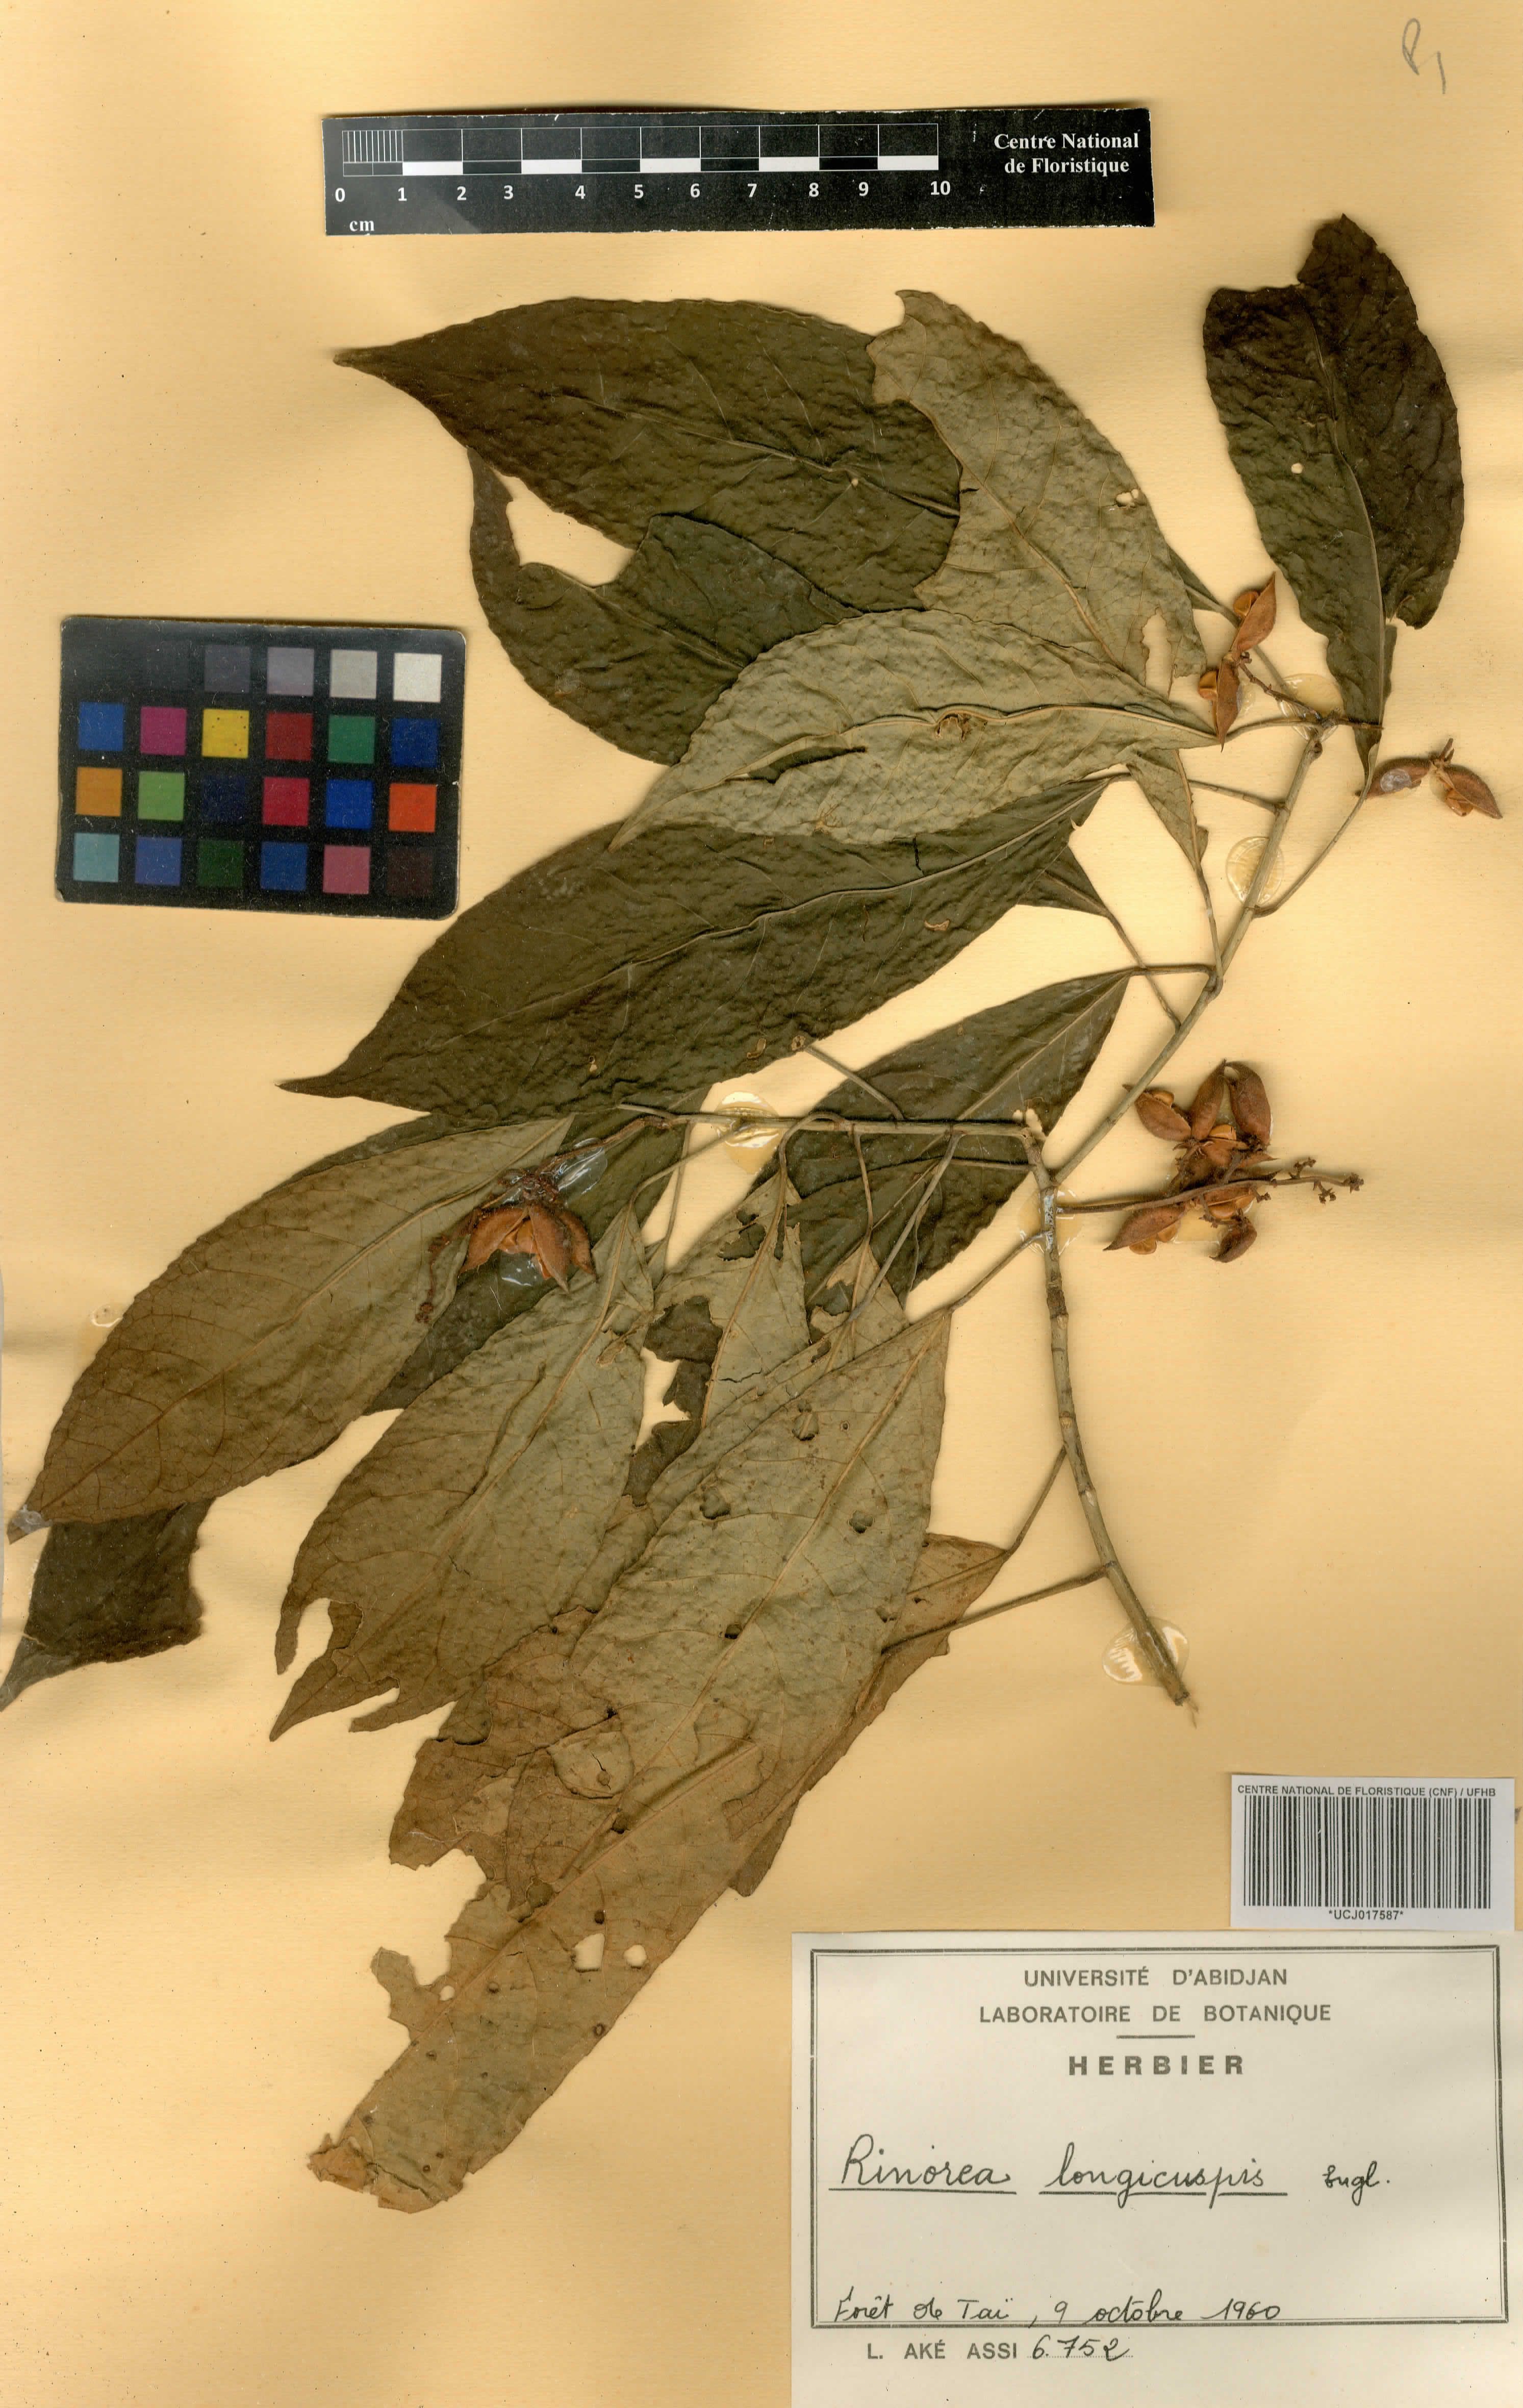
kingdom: Plantae
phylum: Tracheophyta
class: Magnoliopsida
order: Malpighiales
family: Violaceae
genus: Rinorea
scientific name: Rinorea welwitschii
